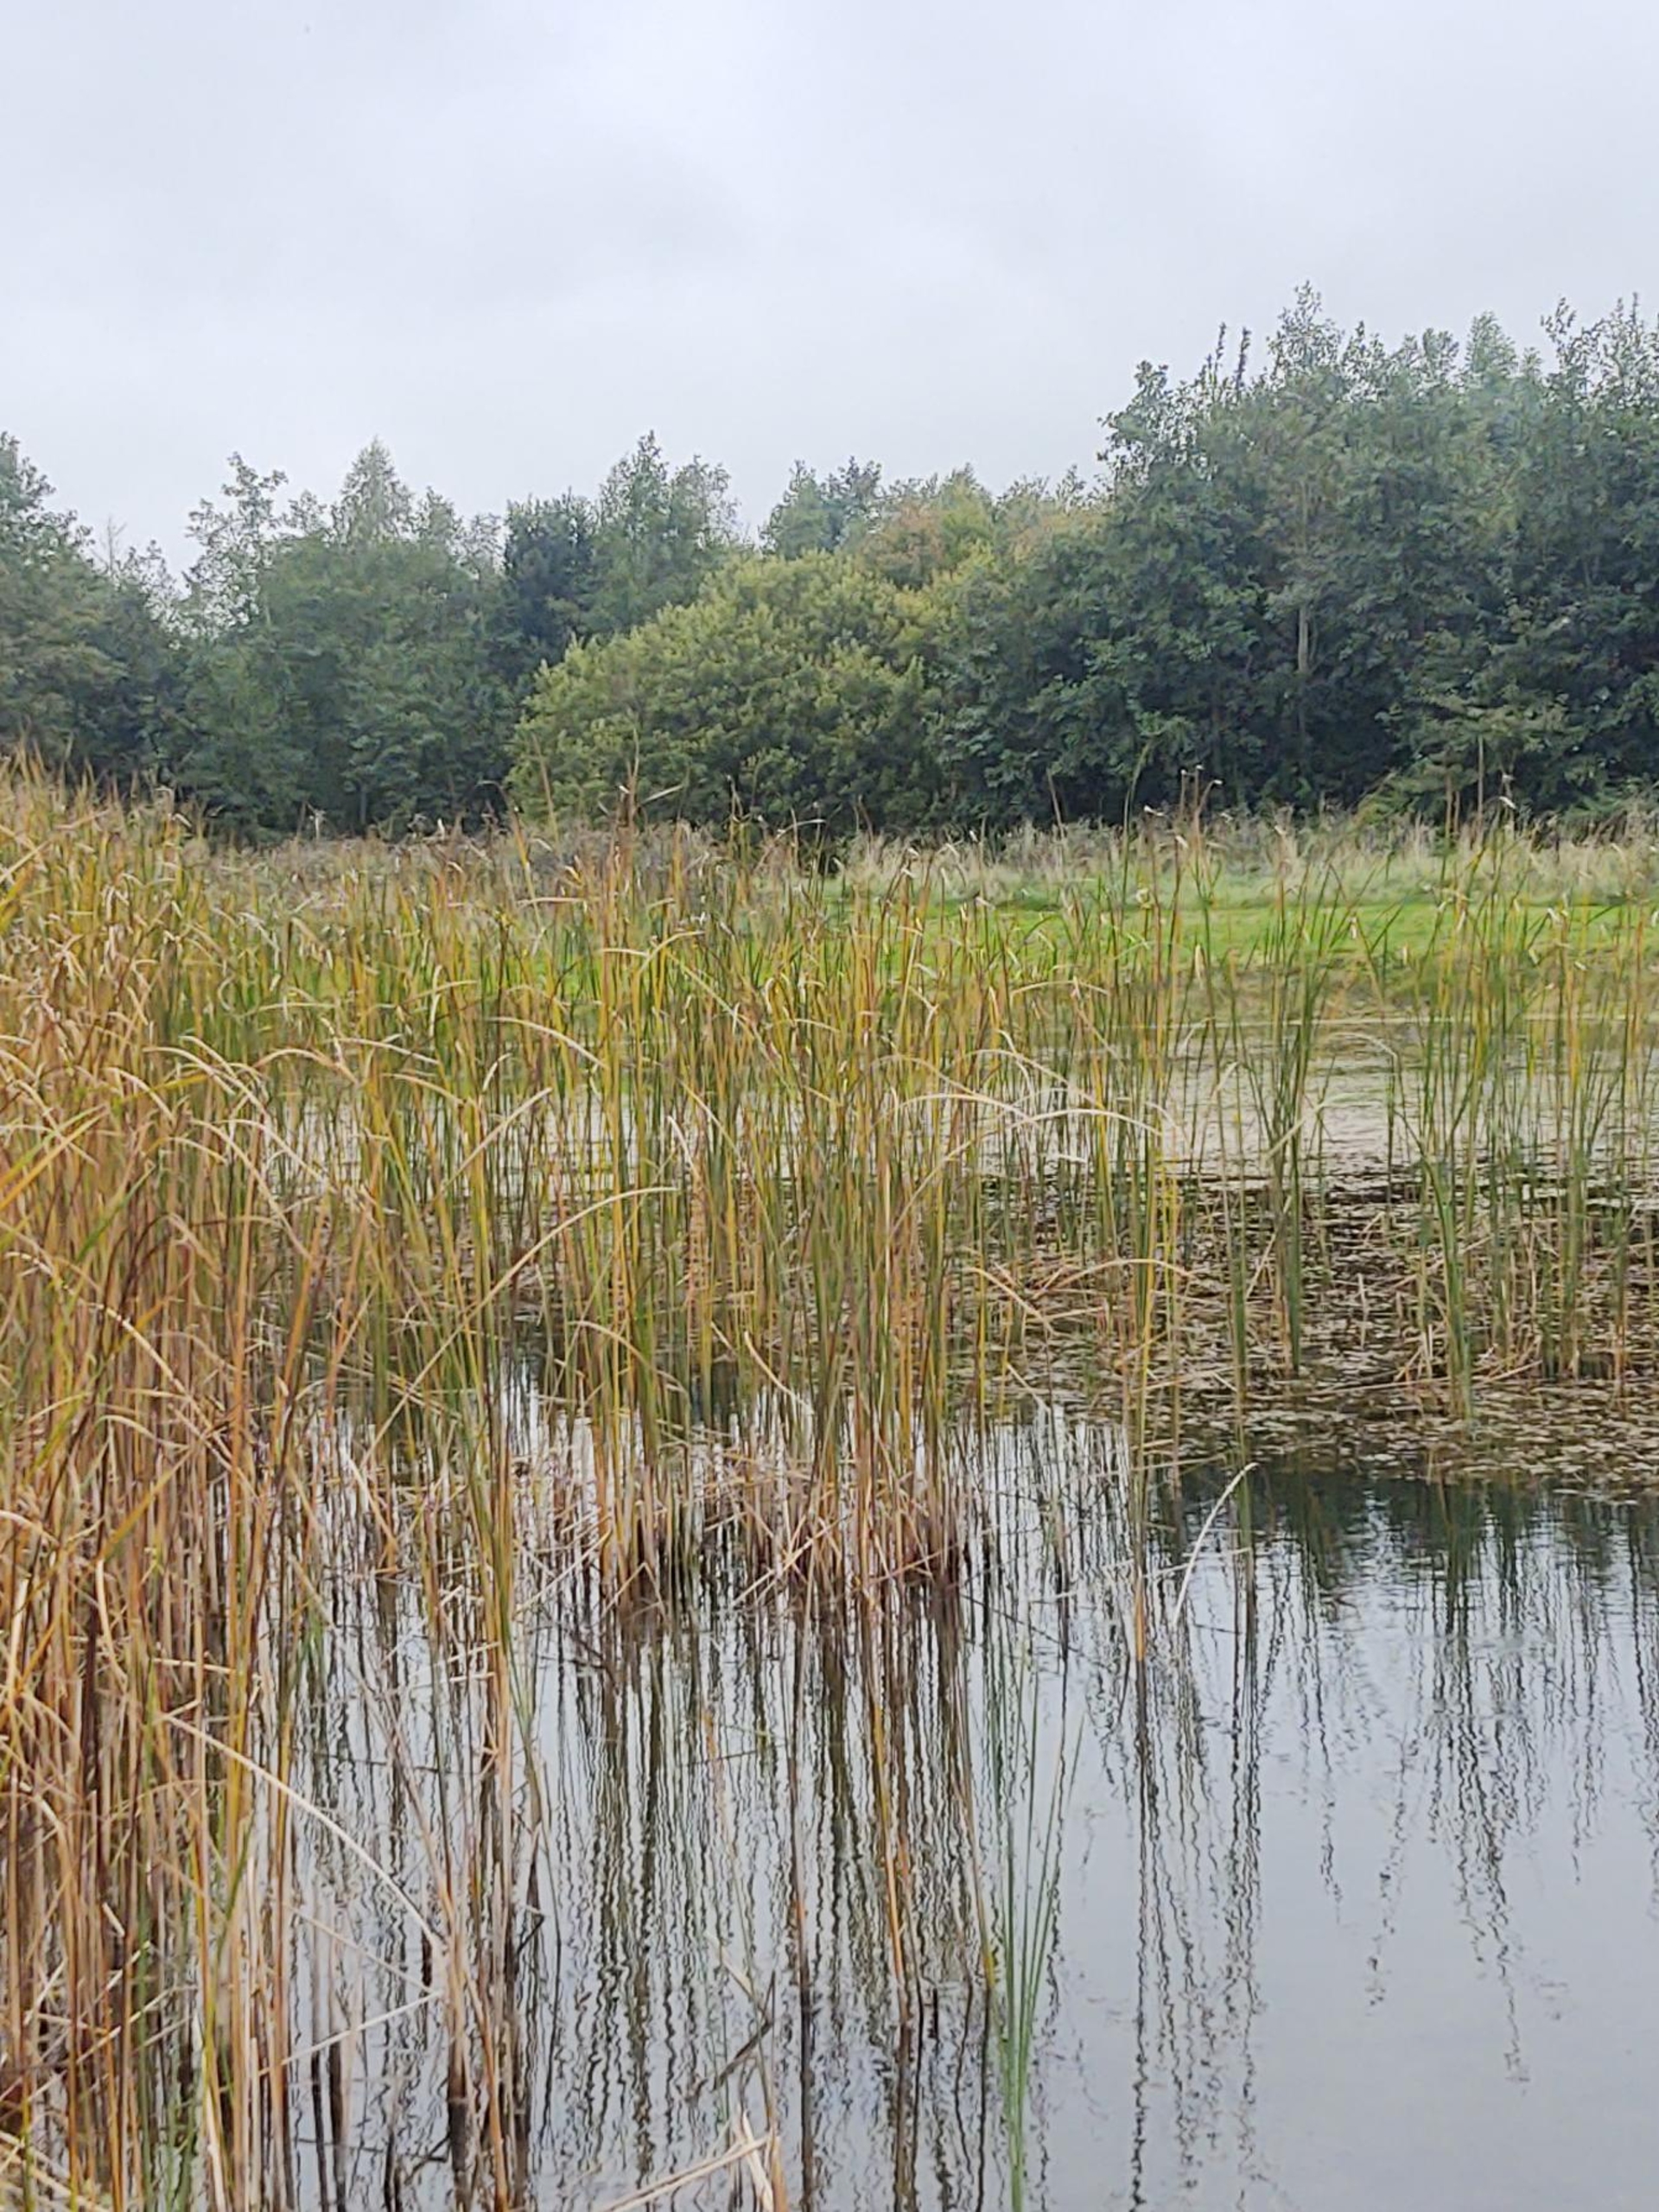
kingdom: Plantae
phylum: Tracheophyta
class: Liliopsida
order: Poales
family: Typhaceae
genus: Typha
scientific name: Typha angustifolia
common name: Smalbladet dunhammer
